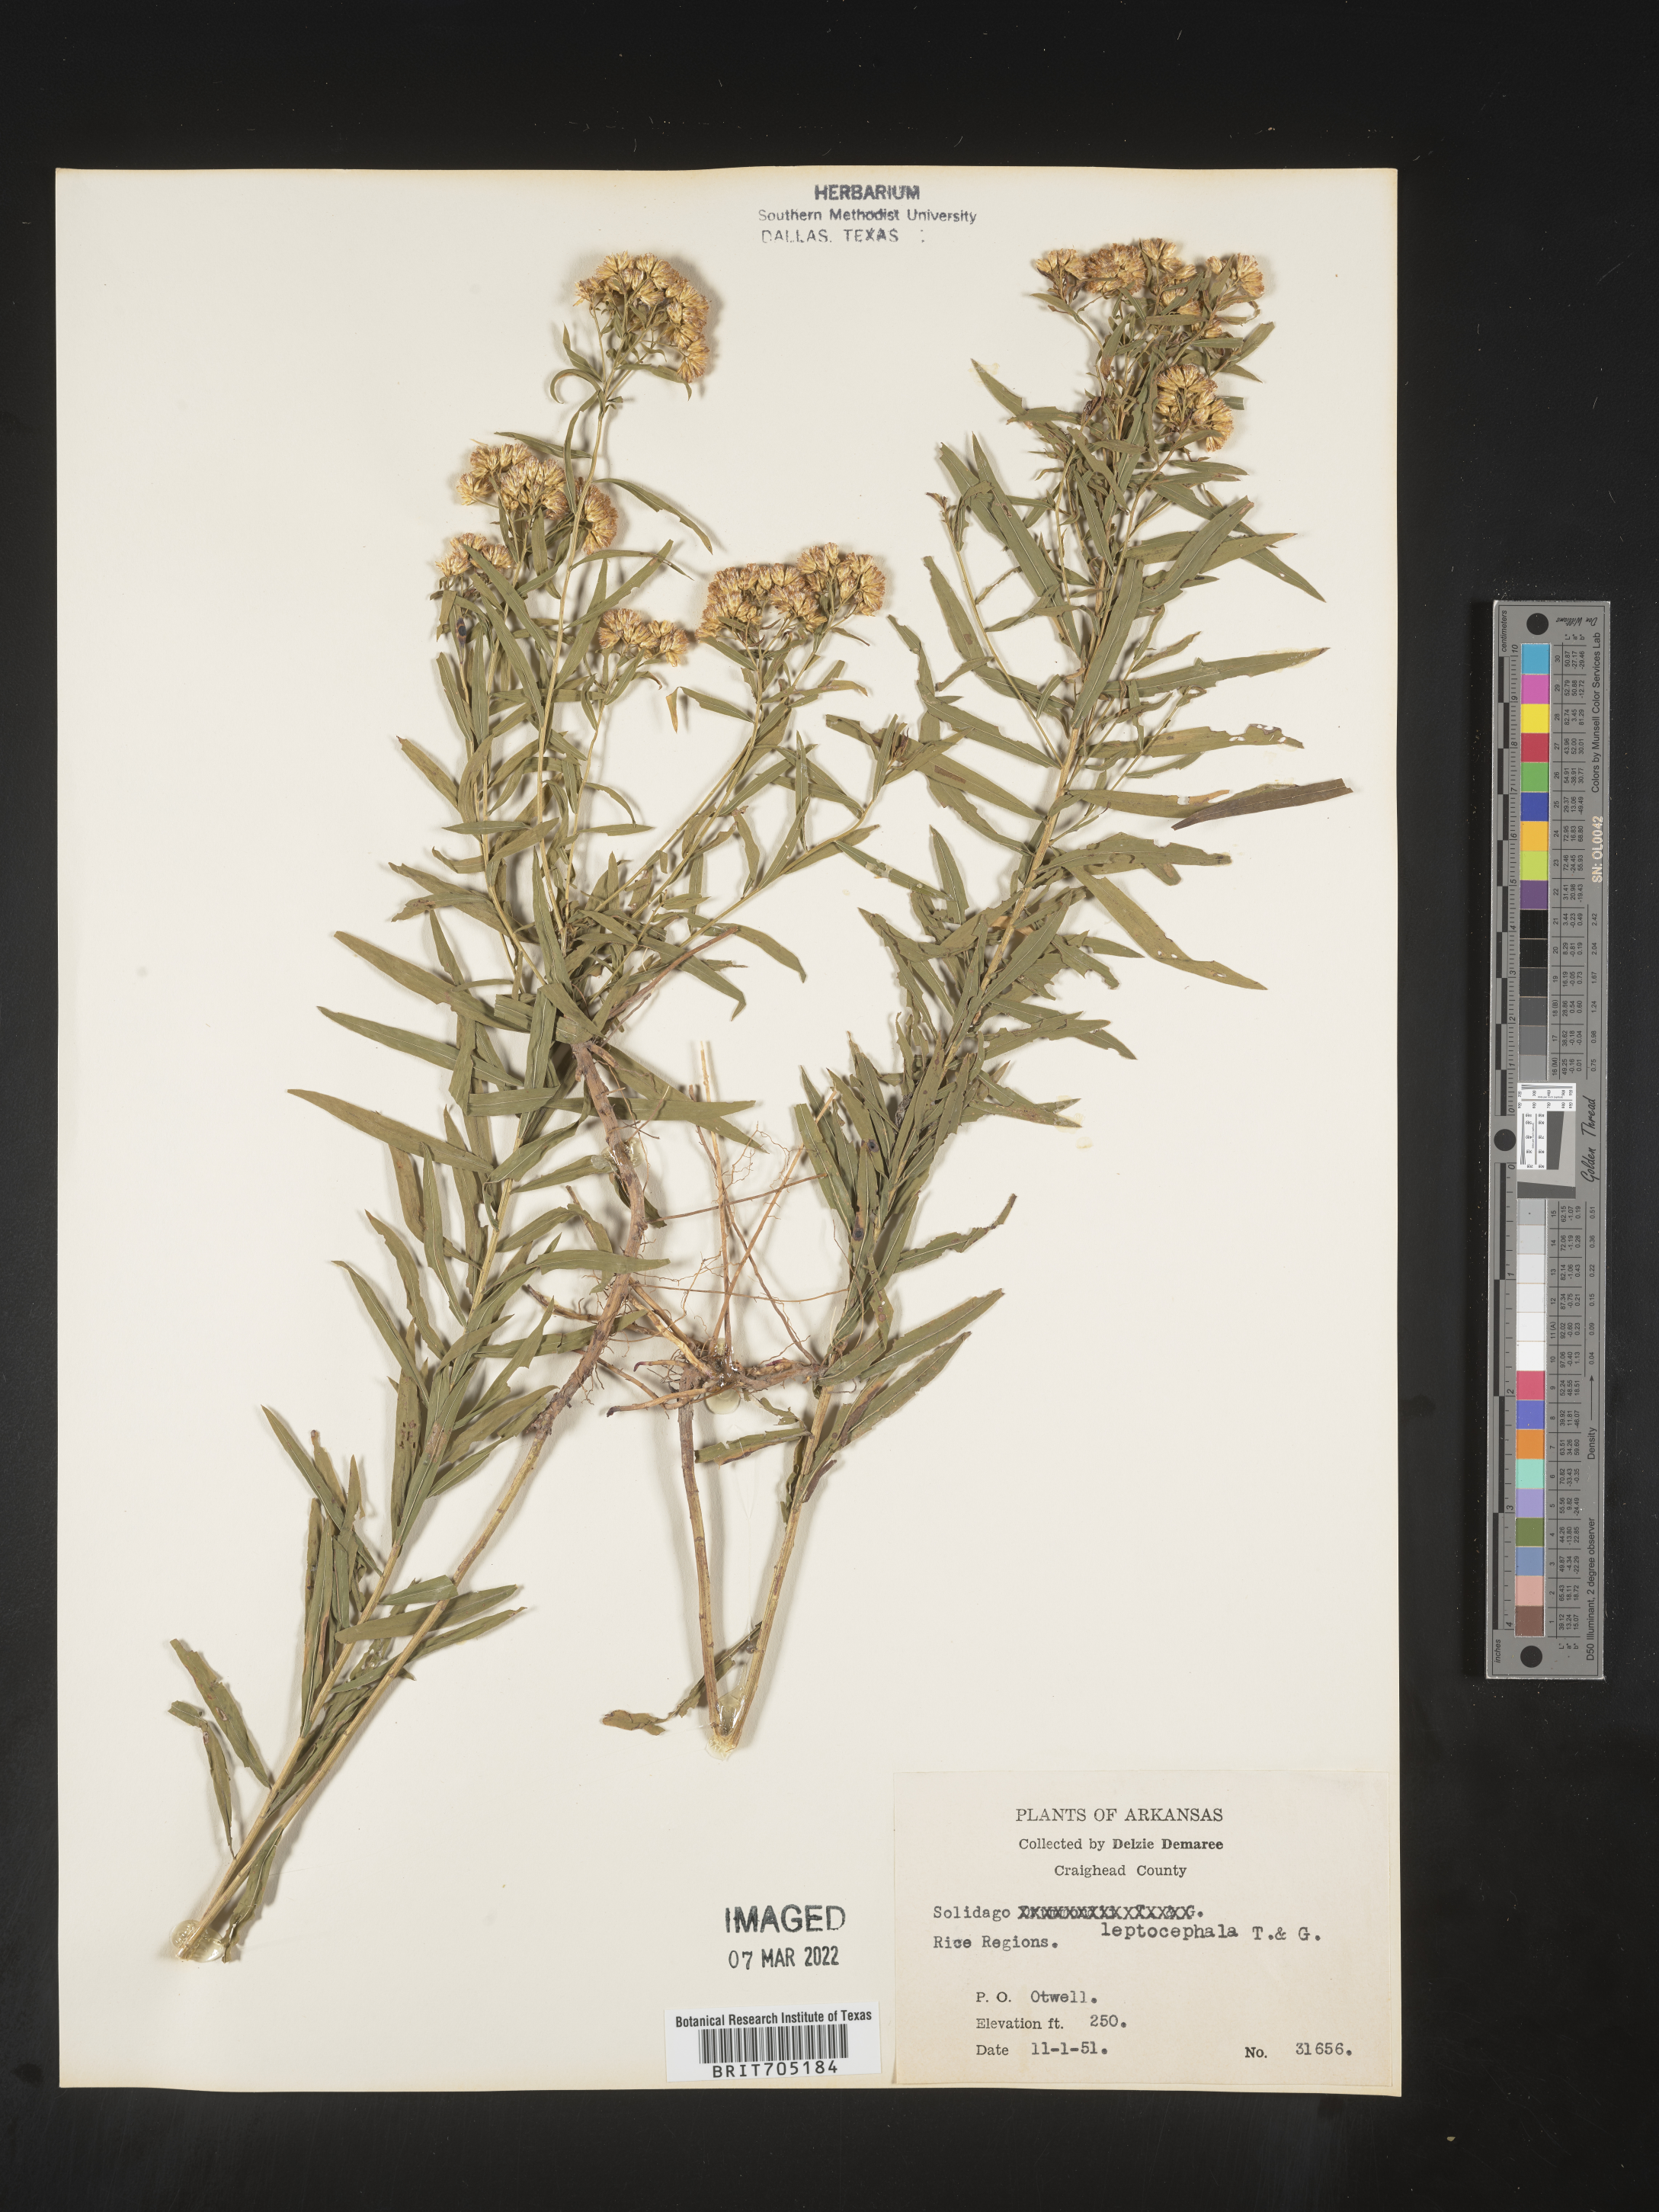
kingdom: Plantae
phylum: Tracheophyta
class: Magnoliopsida
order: Asterales
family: Asteraceae
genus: Euthamia
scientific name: Euthamia leptocephala
